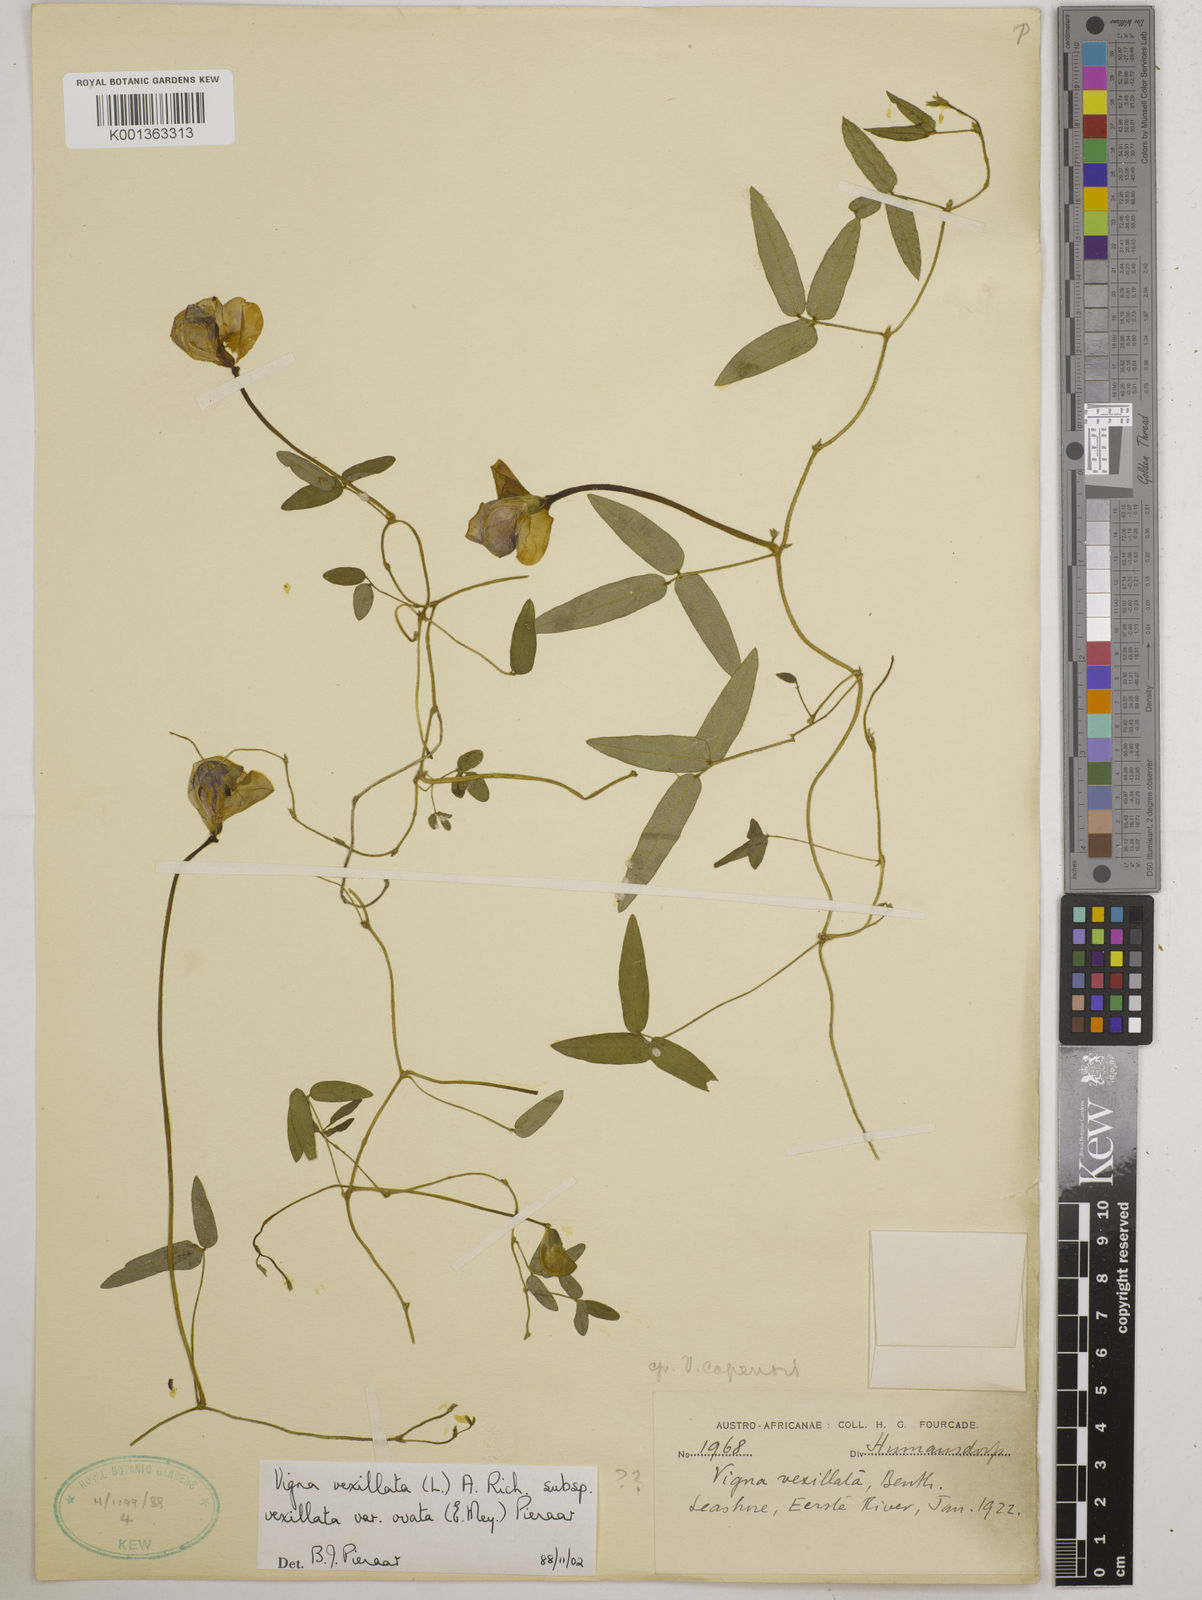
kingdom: Plantae
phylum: Tracheophyta
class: Magnoliopsida
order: Fabales
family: Fabaceae
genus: Vigna
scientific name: Vigna
